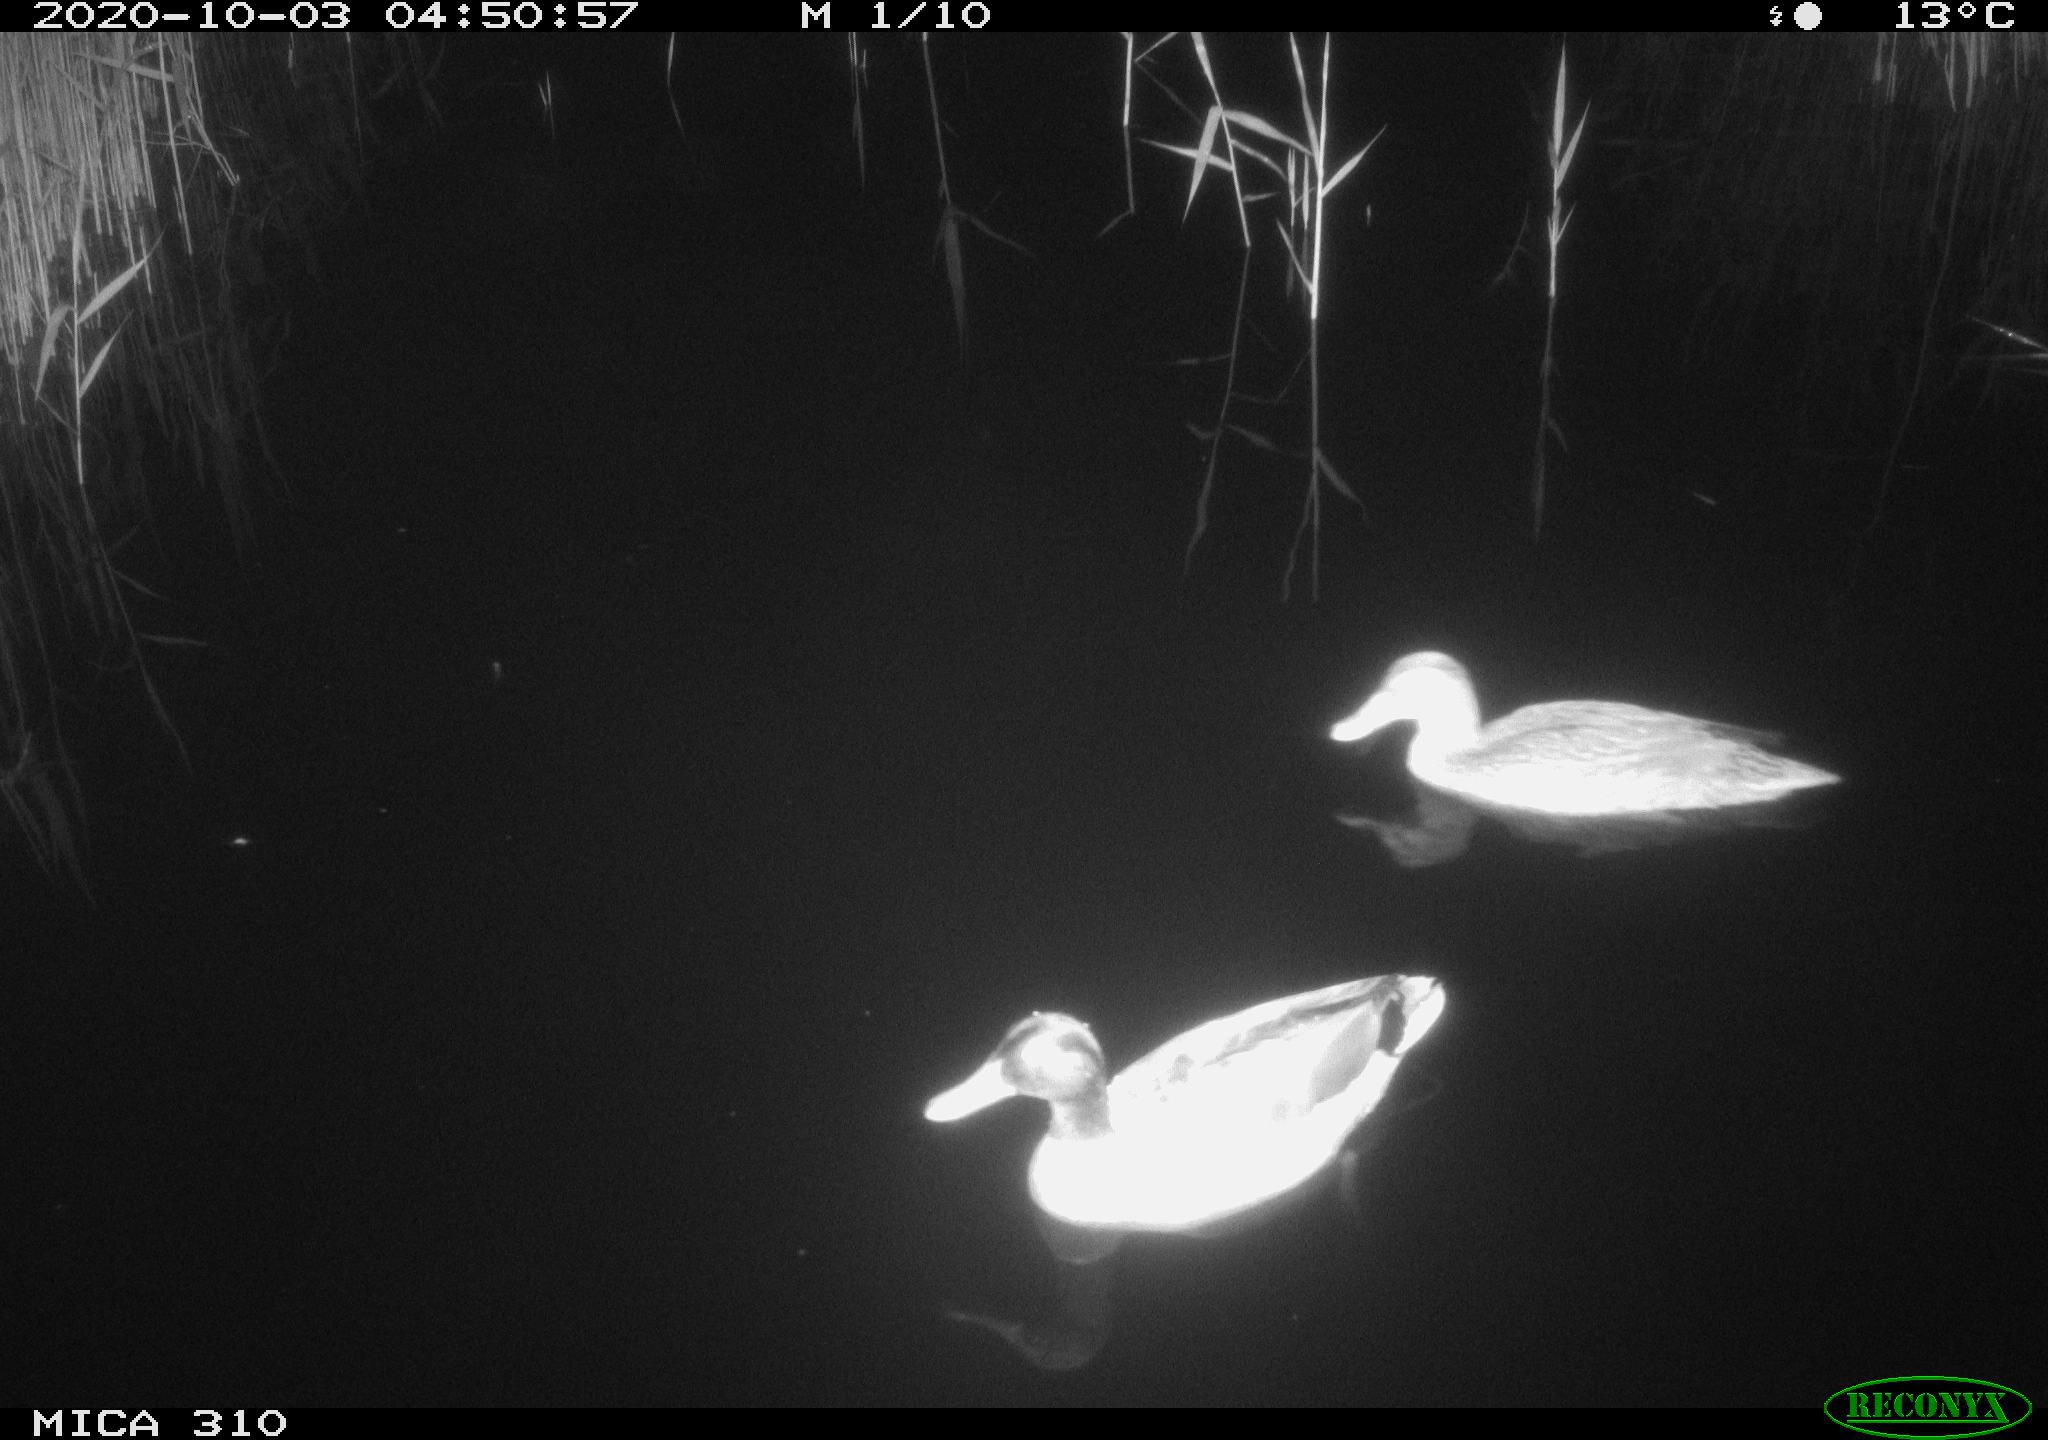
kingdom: Animalia
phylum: Chordata
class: Aves
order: Anseriformes
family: Anatidae
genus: Anas
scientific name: Anas platyrhynchos
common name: Mallard
